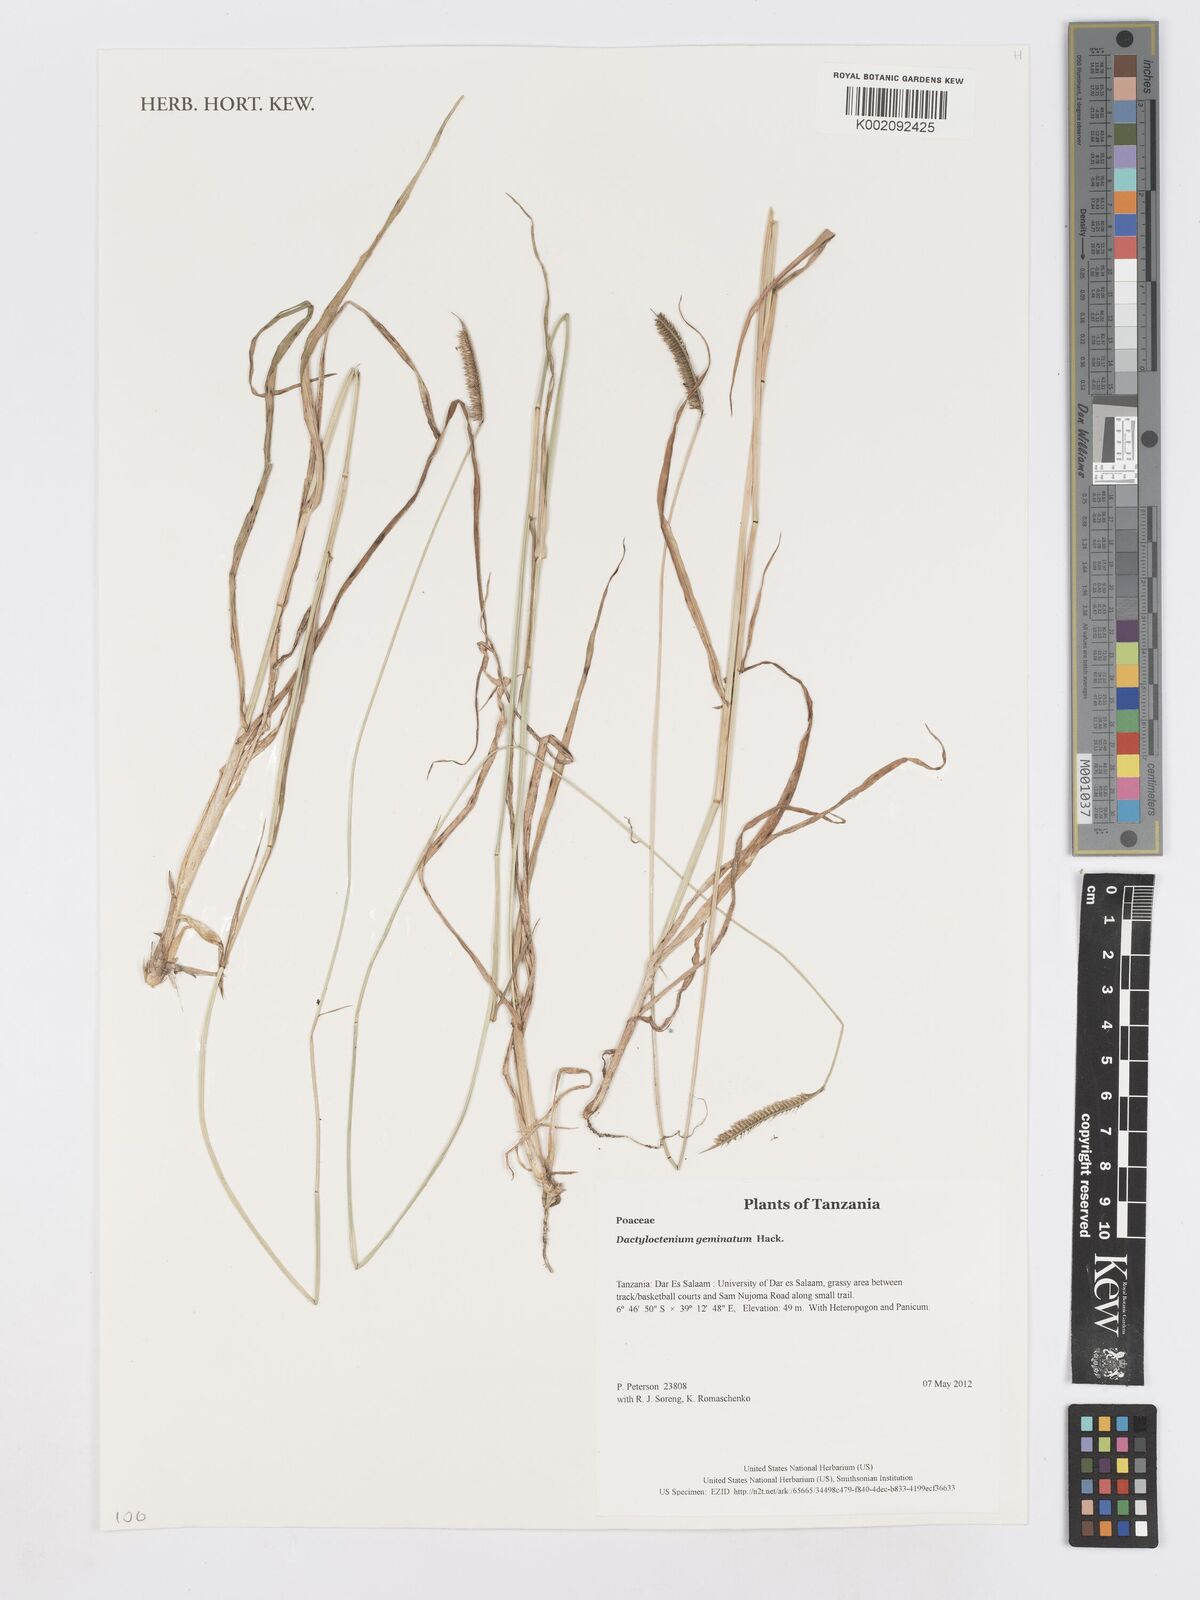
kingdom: Plantae
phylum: Tracheophyta
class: Liliopsida
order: Poales
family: Poaceae
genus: Dactyloctenium
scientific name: Dactyloctenium geminatum
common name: Crowsfoot grass
